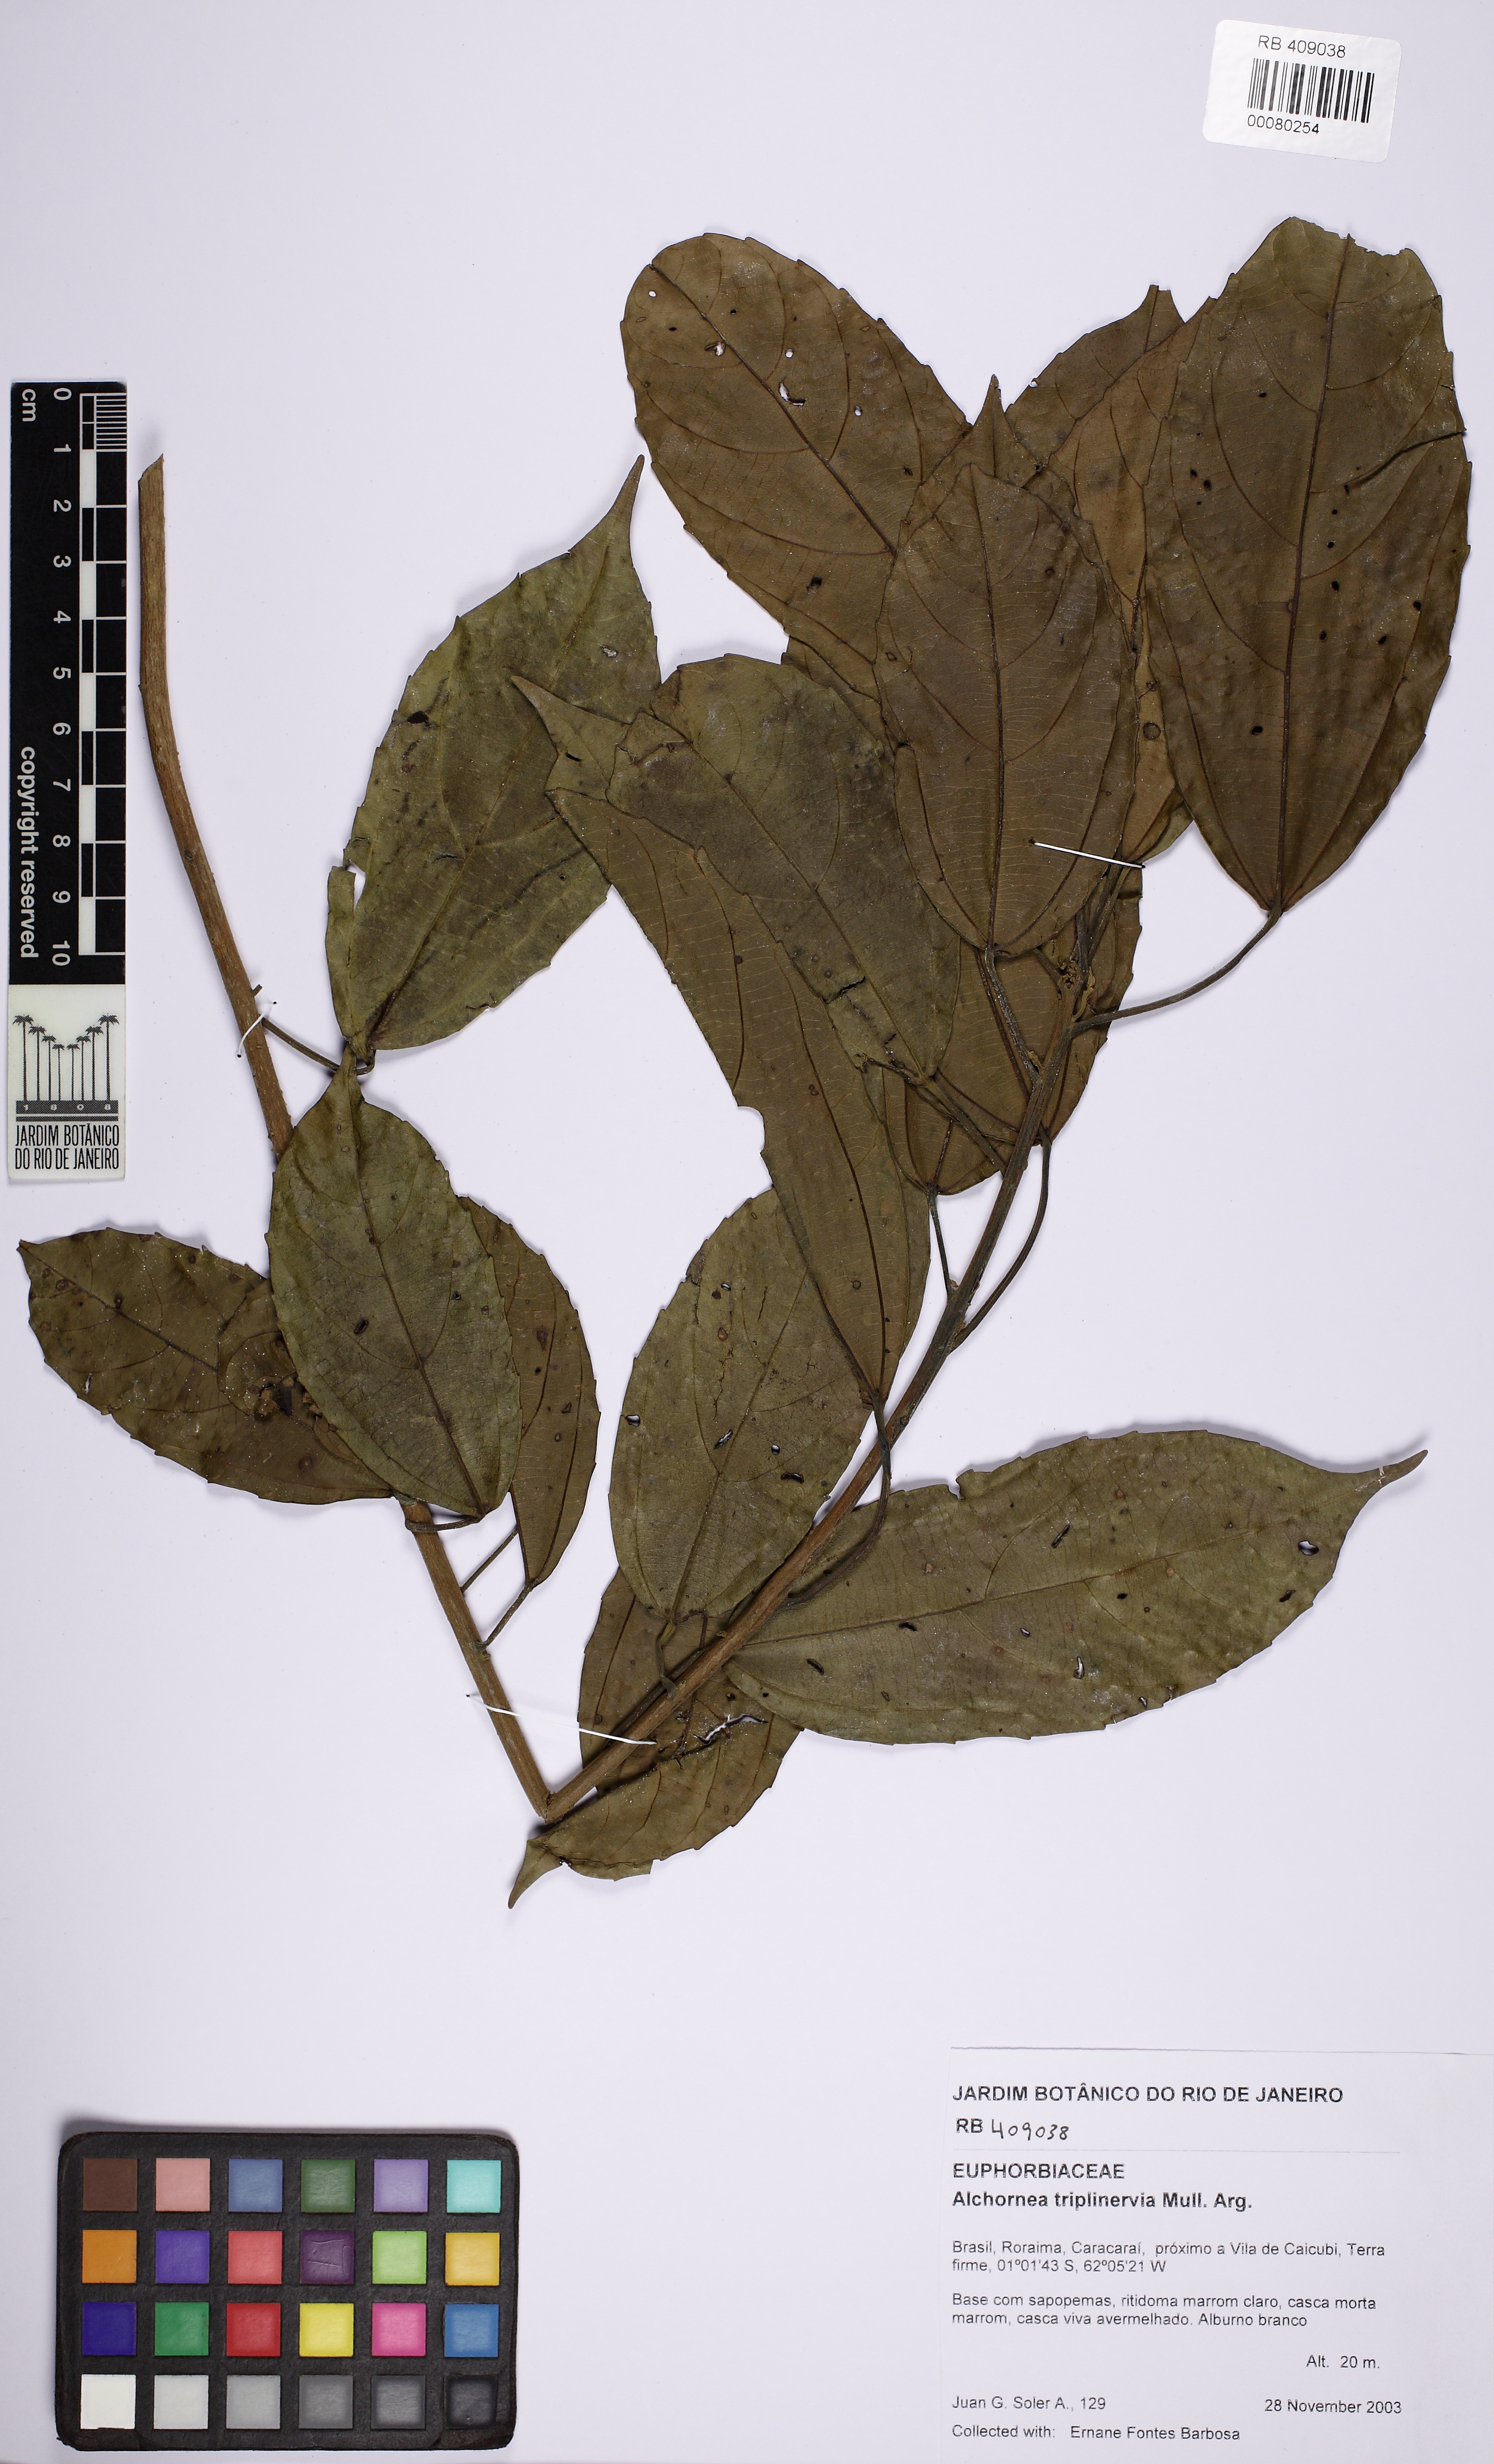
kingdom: Plantae
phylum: Tracheophyta
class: Magnoliopsida
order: Malpighiales
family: Euphorbiaceae
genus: Alchornea
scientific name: Alchornea triplinervia
